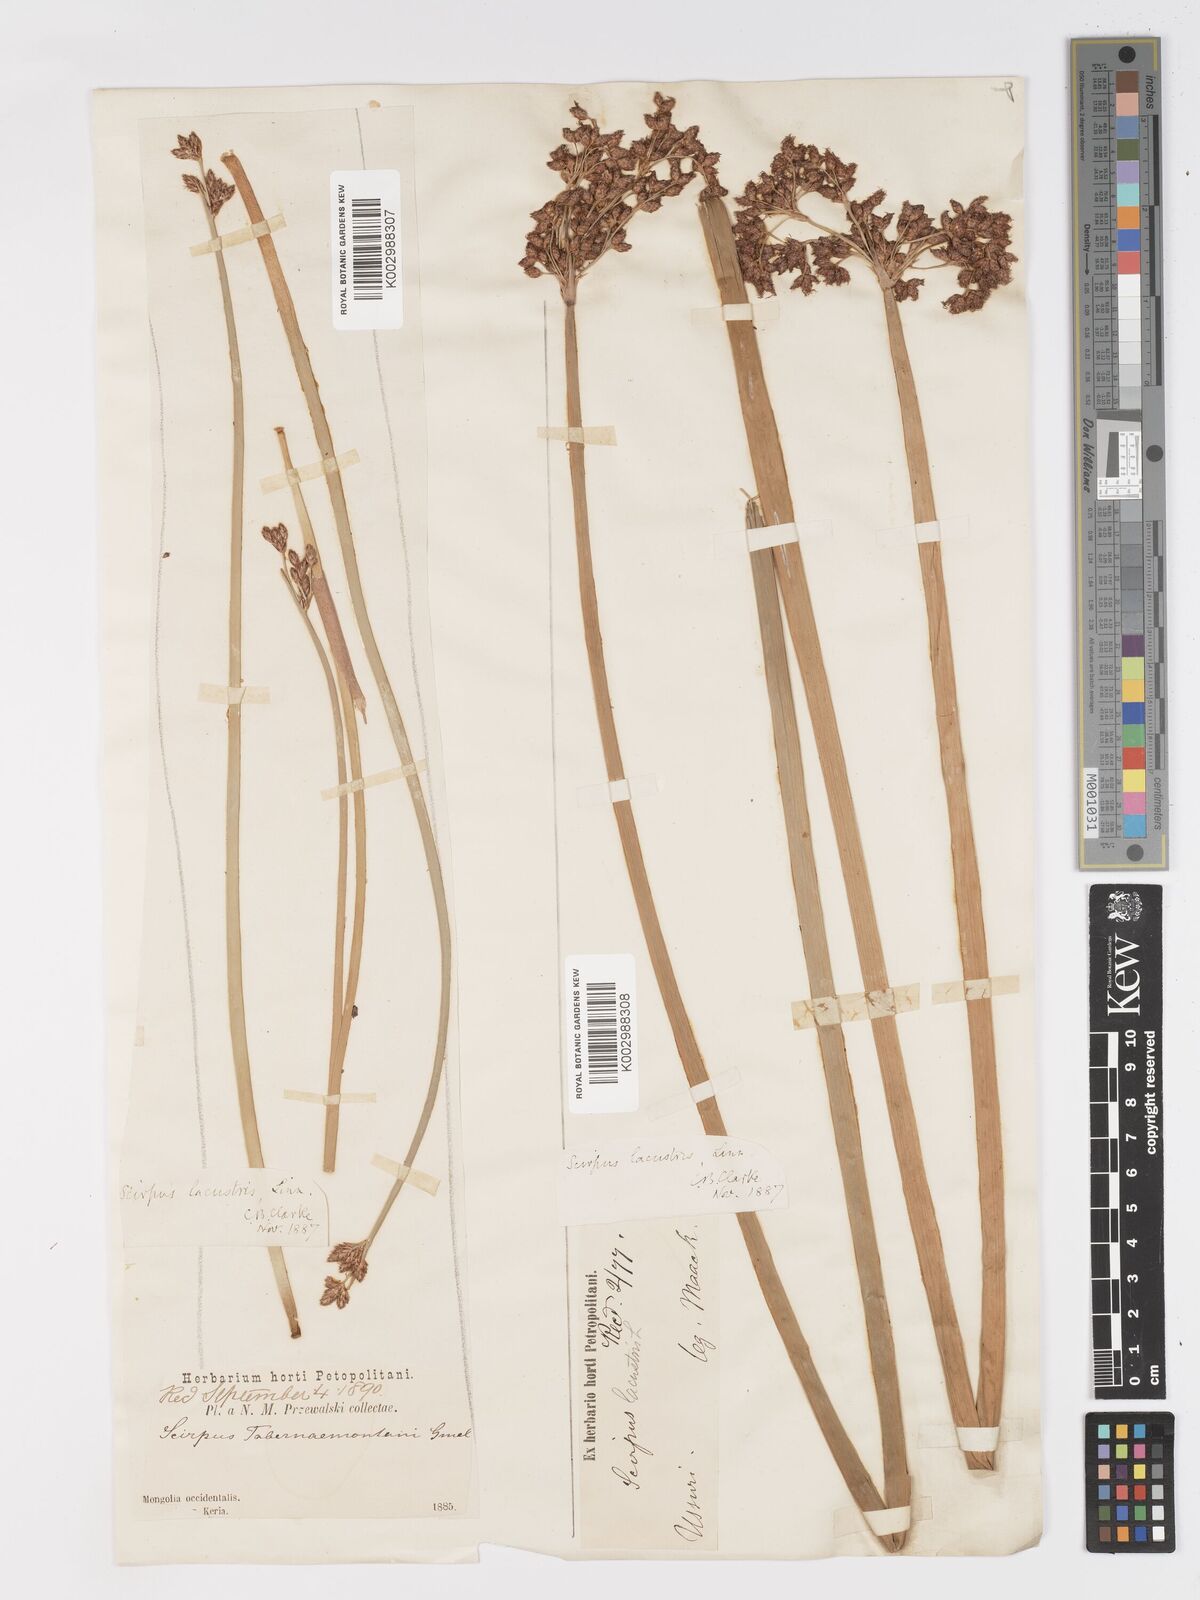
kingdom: Plantae
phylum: Tracheophyta
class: Liliopsida
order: Poales
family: Cyperaceae
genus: Schoenoplectus
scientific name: Schoenoplectus lacustris
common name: Common club-rush
